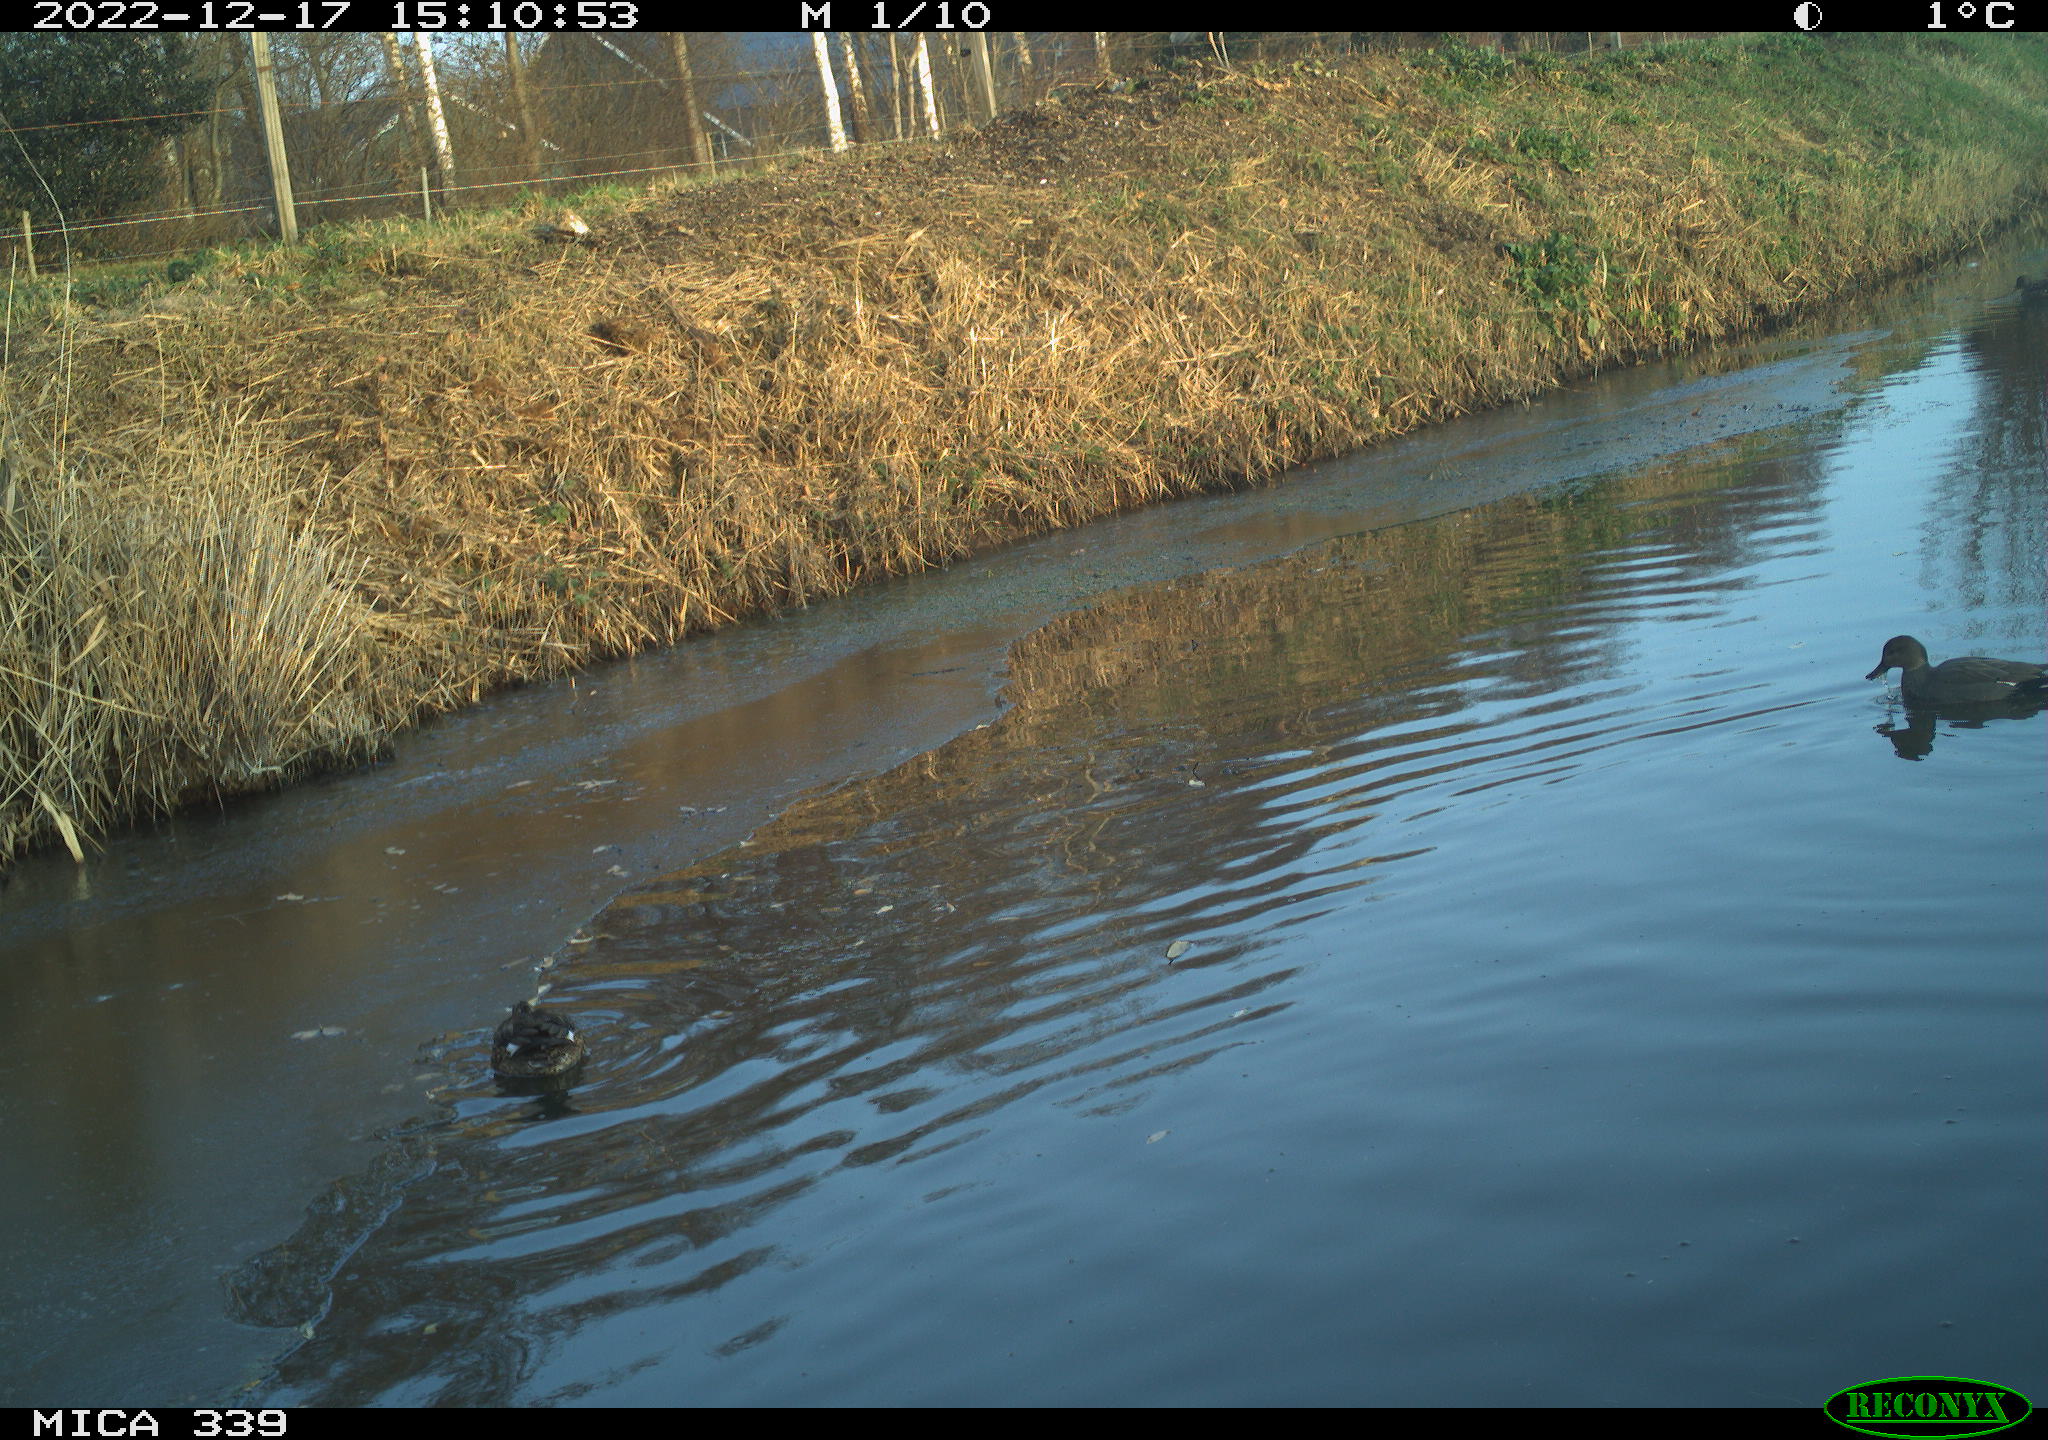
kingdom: Animalia
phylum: Chordata
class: Aves
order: Anseriformes
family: Anatidae
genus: Anas
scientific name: Anas
